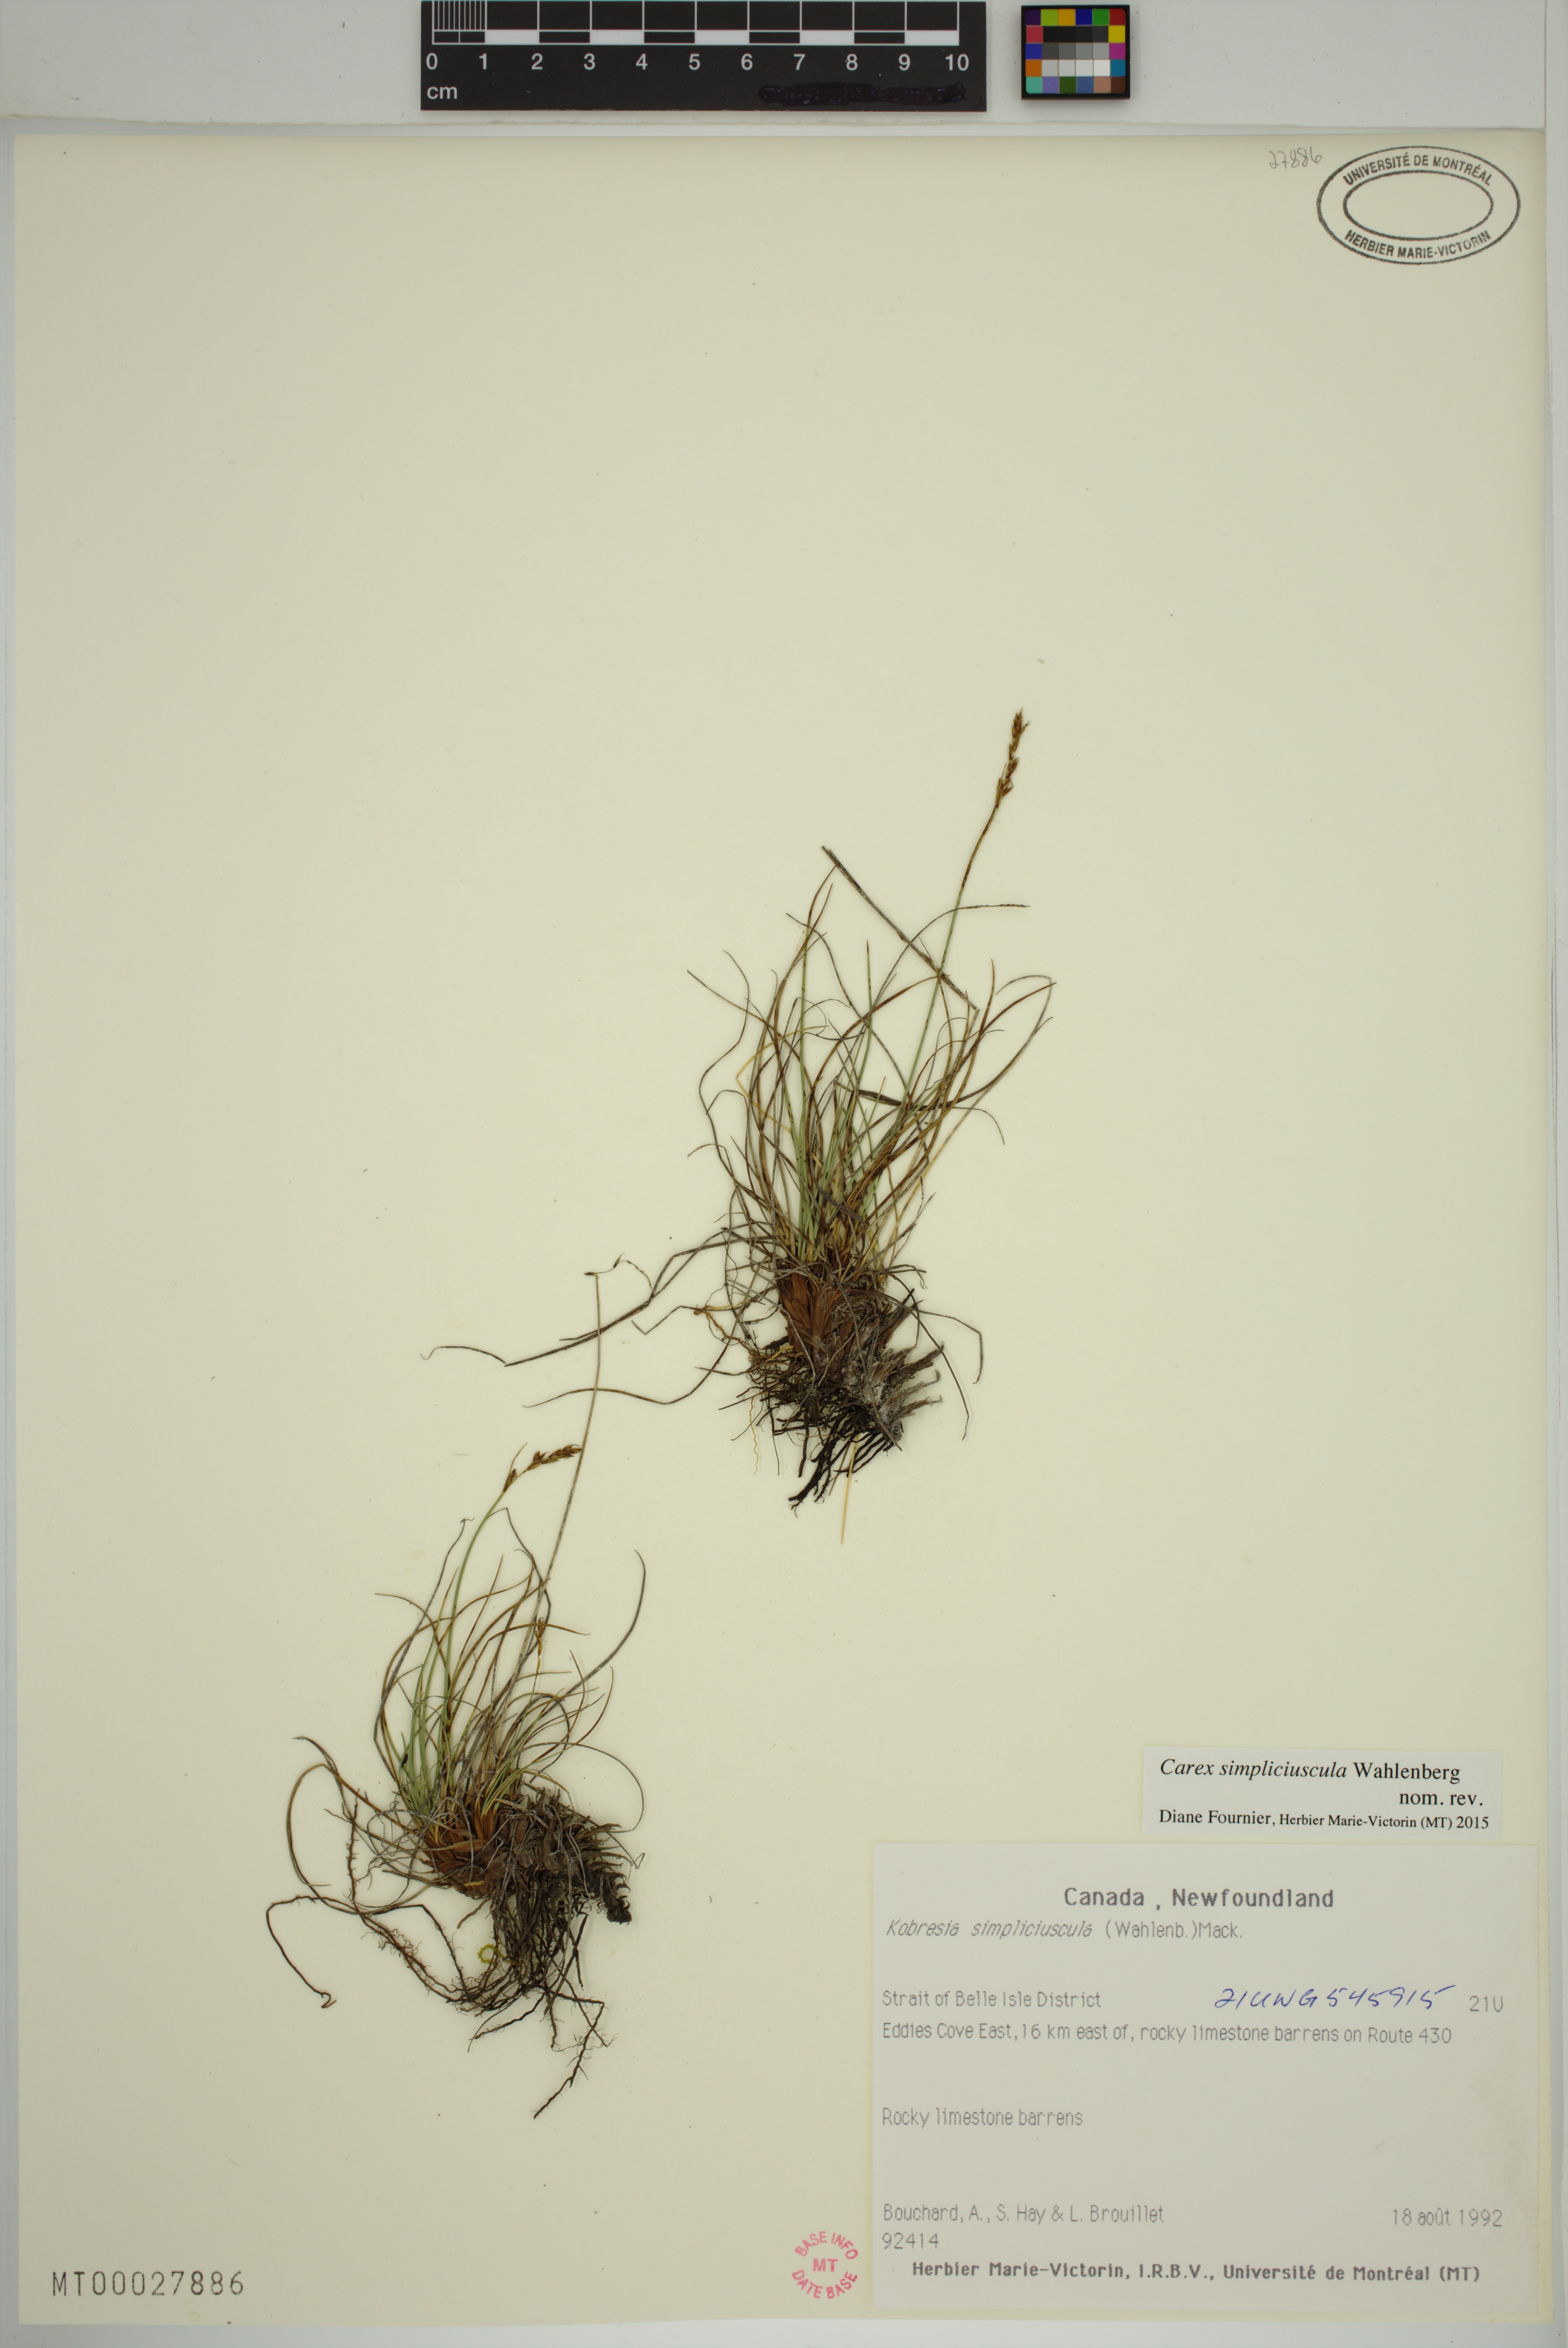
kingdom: Plantae
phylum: Tracheophyta
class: Liliopsida
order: Poales
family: Cyperaceae
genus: Carex
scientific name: Carex simpliciuscula
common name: Simple bog sedge
